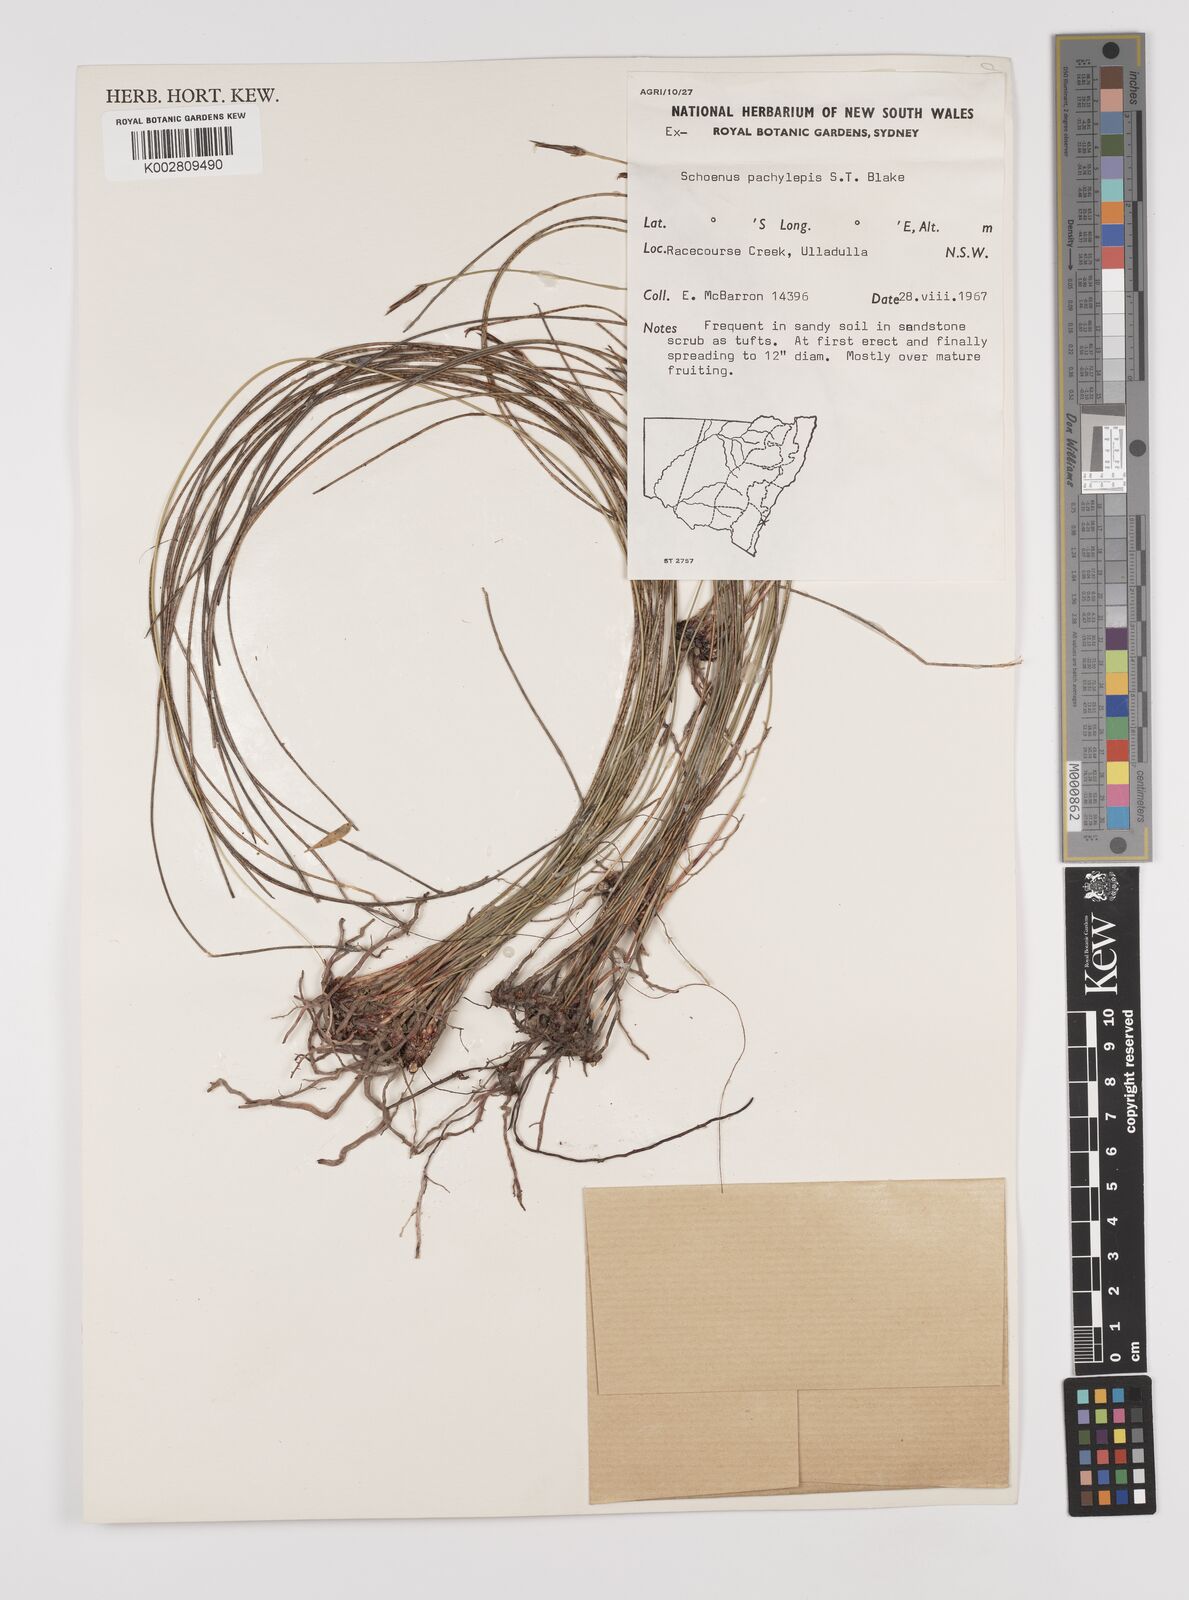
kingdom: Plantae
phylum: Tracheophyta
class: Liliopsida
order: Poales
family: Cyperaceae
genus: Schoenus
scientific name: Schoenus lepidosperma
